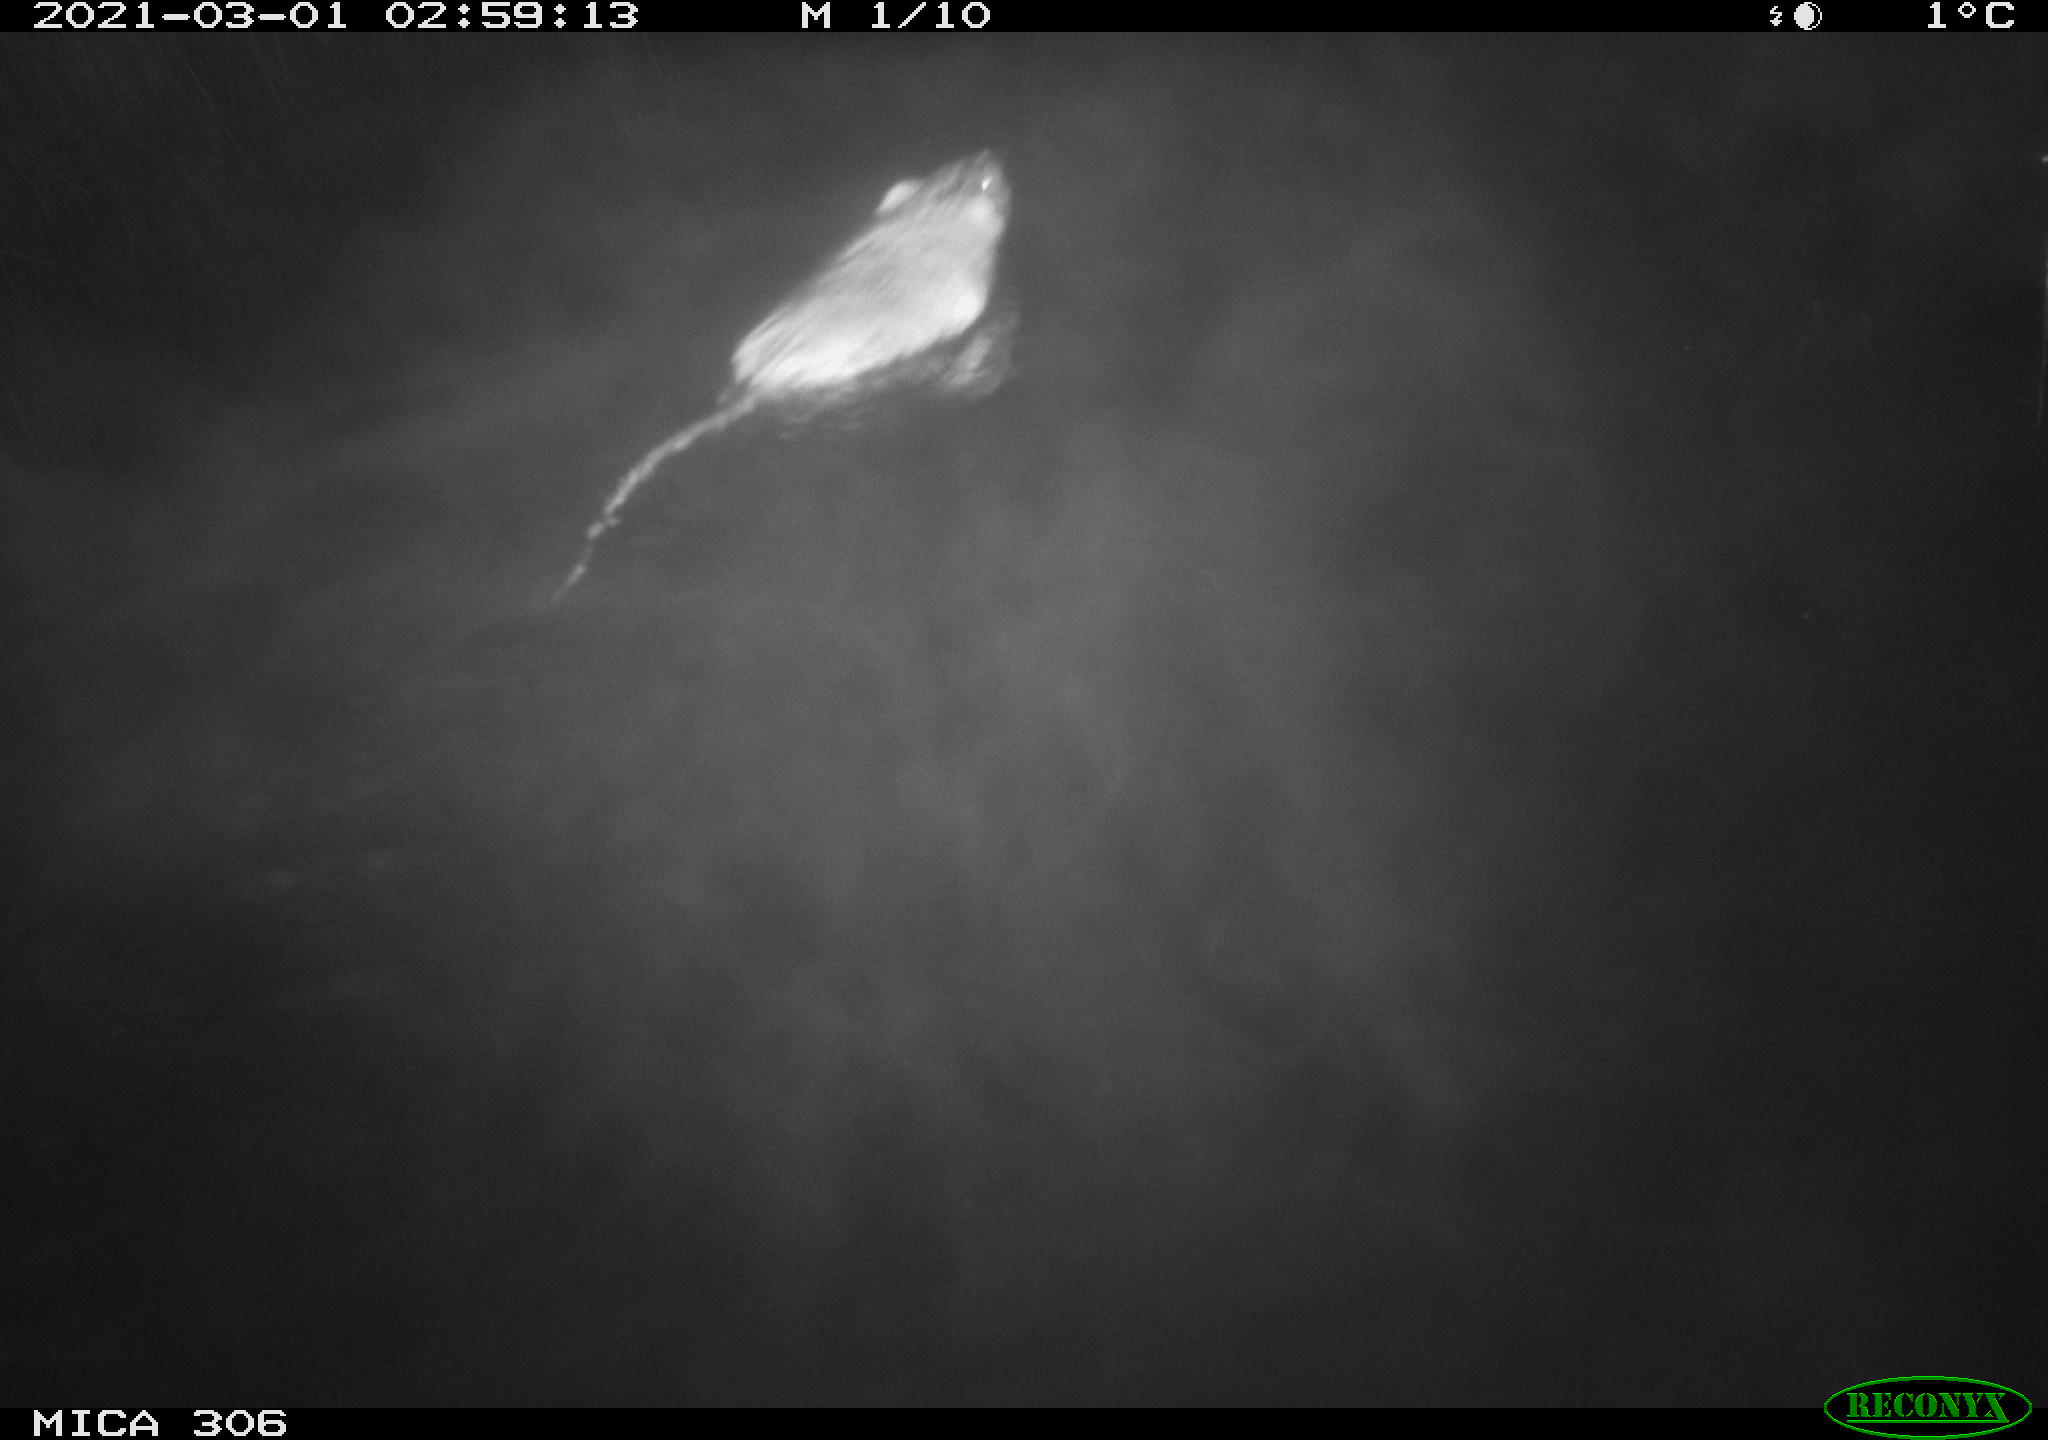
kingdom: Animalia
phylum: Chordata
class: Mammalia
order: Rodentia
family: Cricetidae
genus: Ondatra
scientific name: Ondatra zibethicus
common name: Muskrat
